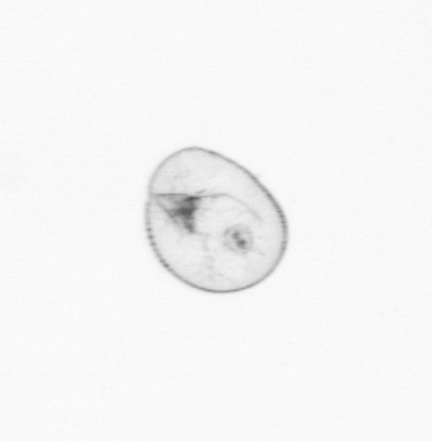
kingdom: Chromista
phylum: Myzozoa
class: Dinophyceae
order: Noctilucales
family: Noctilucaceae
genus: Noctiluca
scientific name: Noctiluca scintillans
